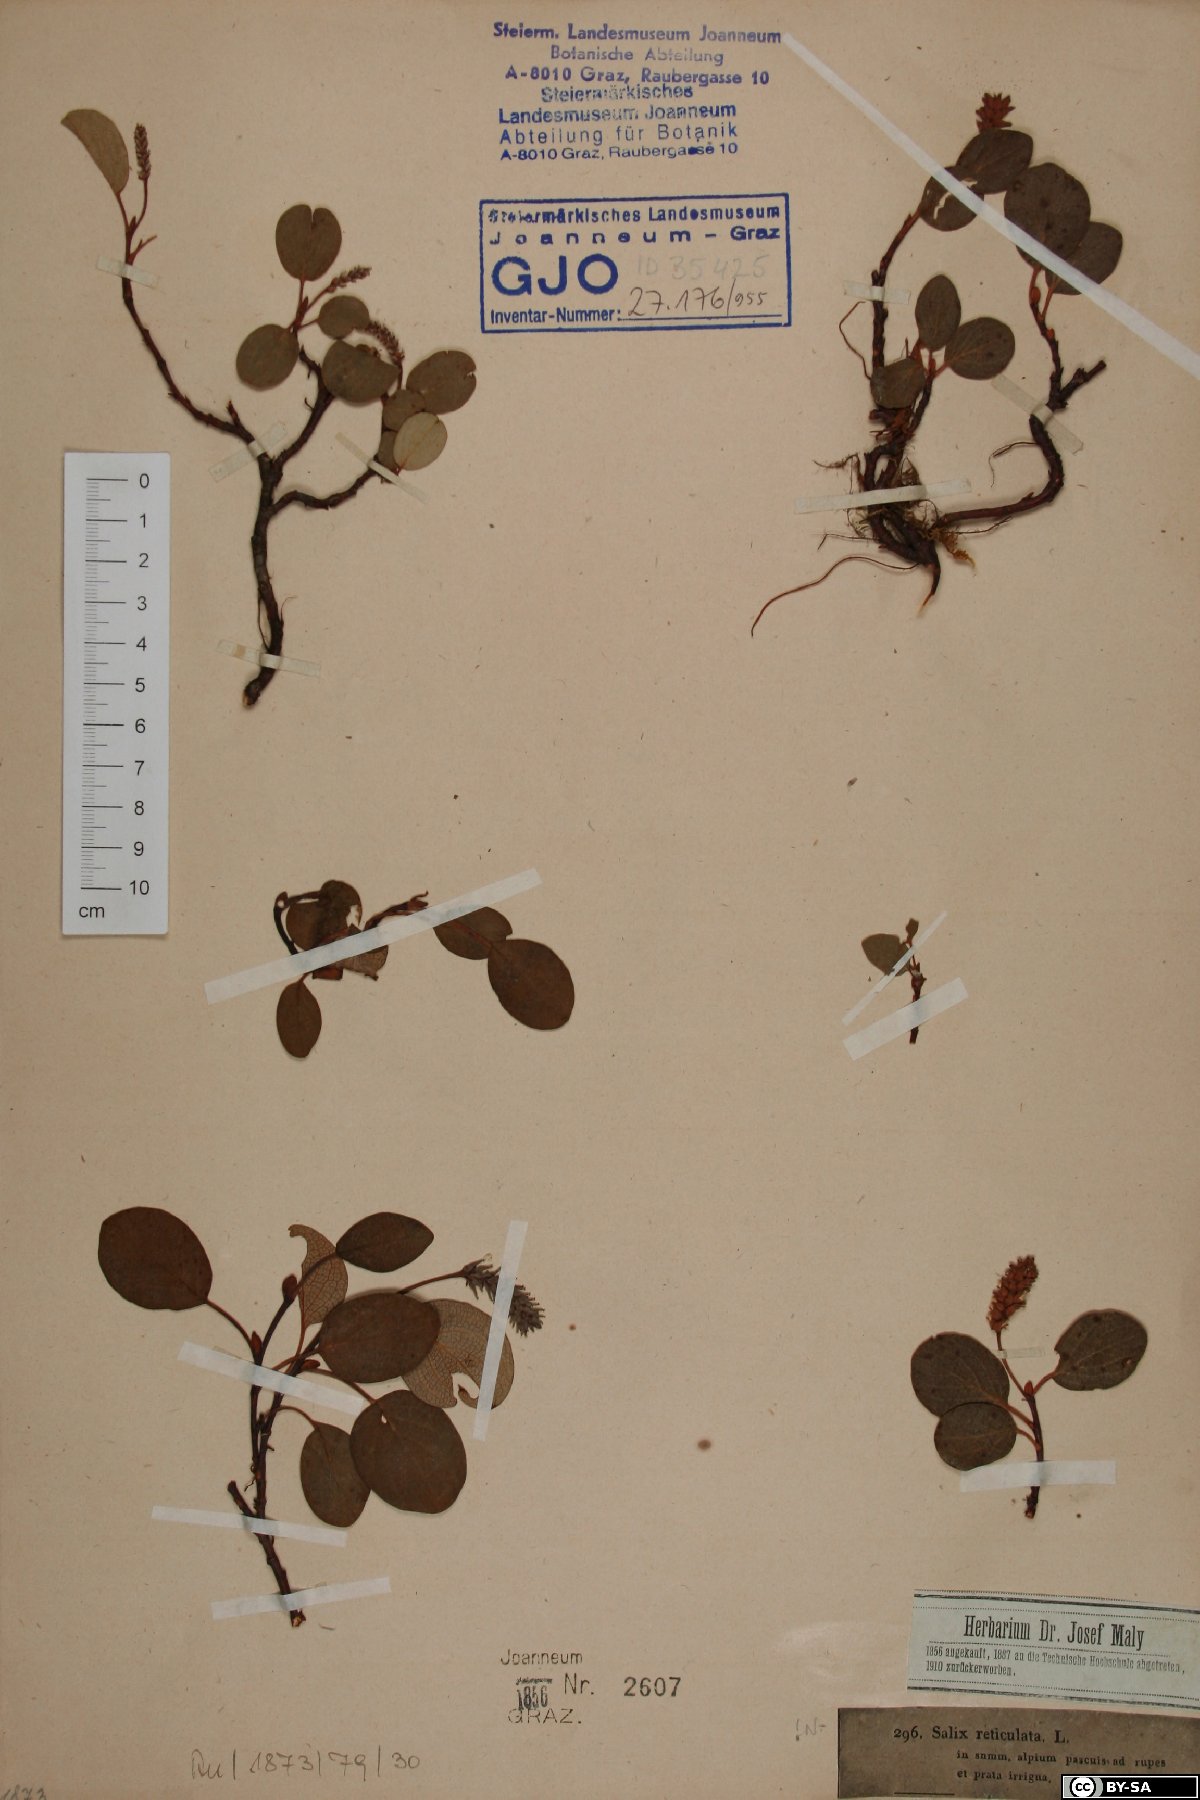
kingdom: Plantae
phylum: Tracheophyta
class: Magnoliopsida
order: Malpighiales
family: Salicaceae
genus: Salix
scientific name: Salix reticulata
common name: Net-leaved willow
